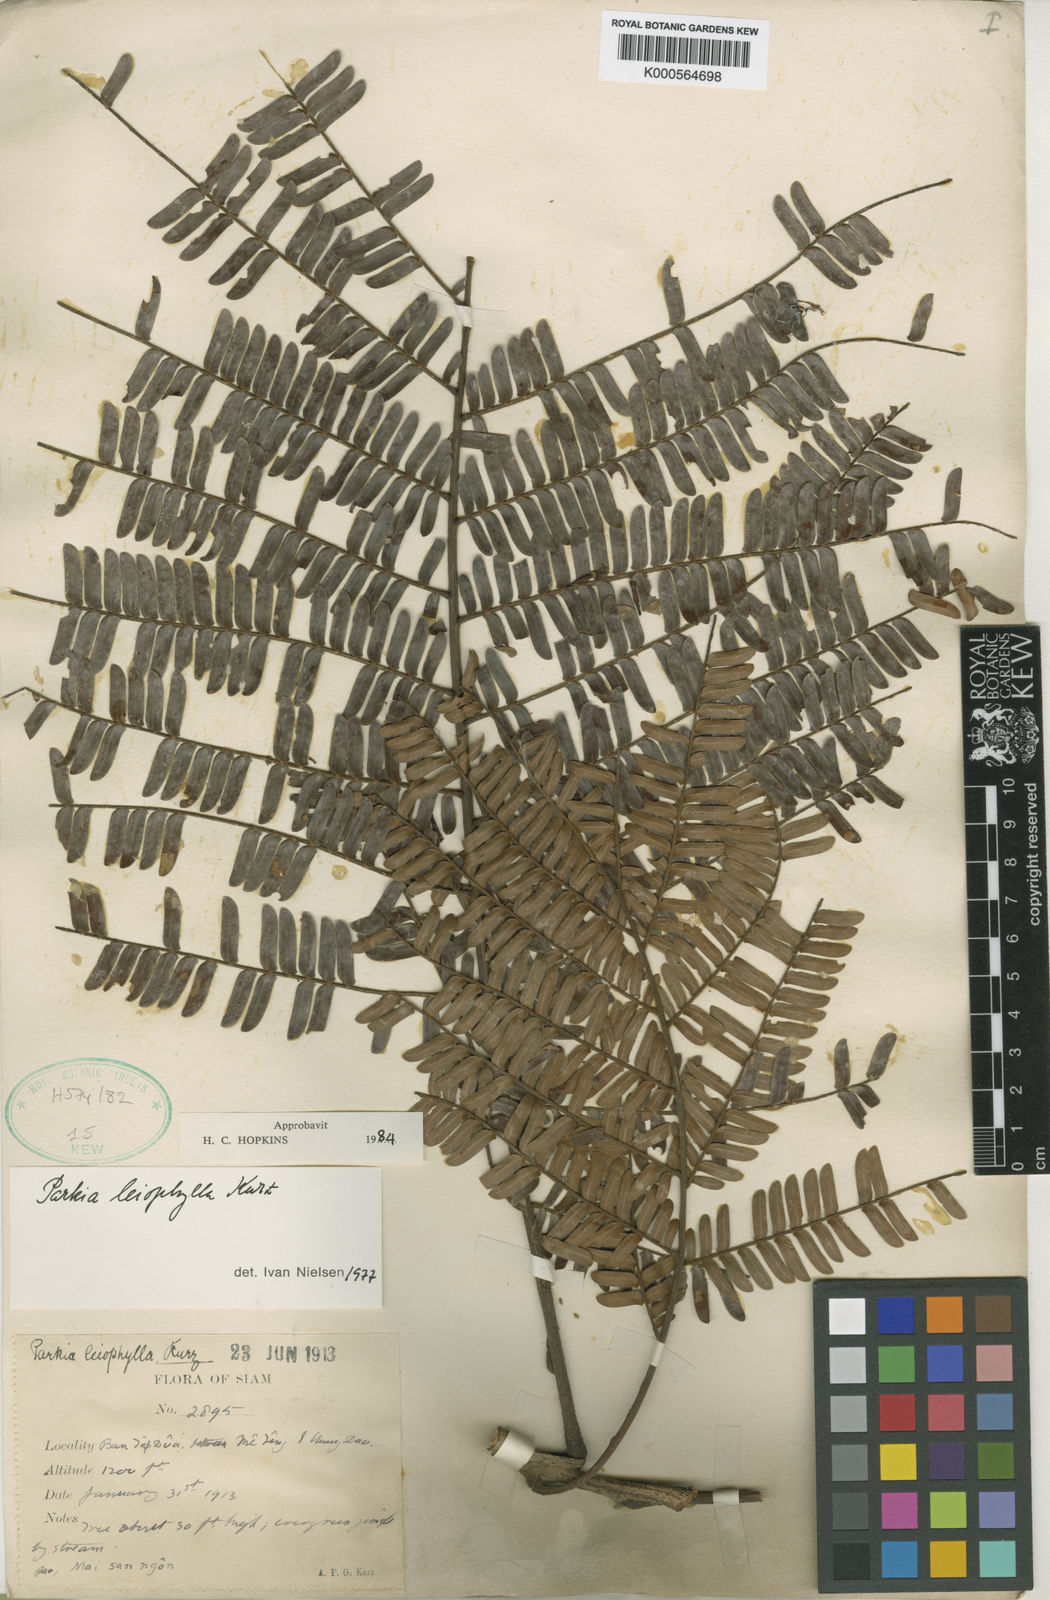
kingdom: Plantae
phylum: Tracheophyta
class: Magnoliopsida
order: Fabales
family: Fabaceae
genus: Parkia
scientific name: Parkia leiophylla
